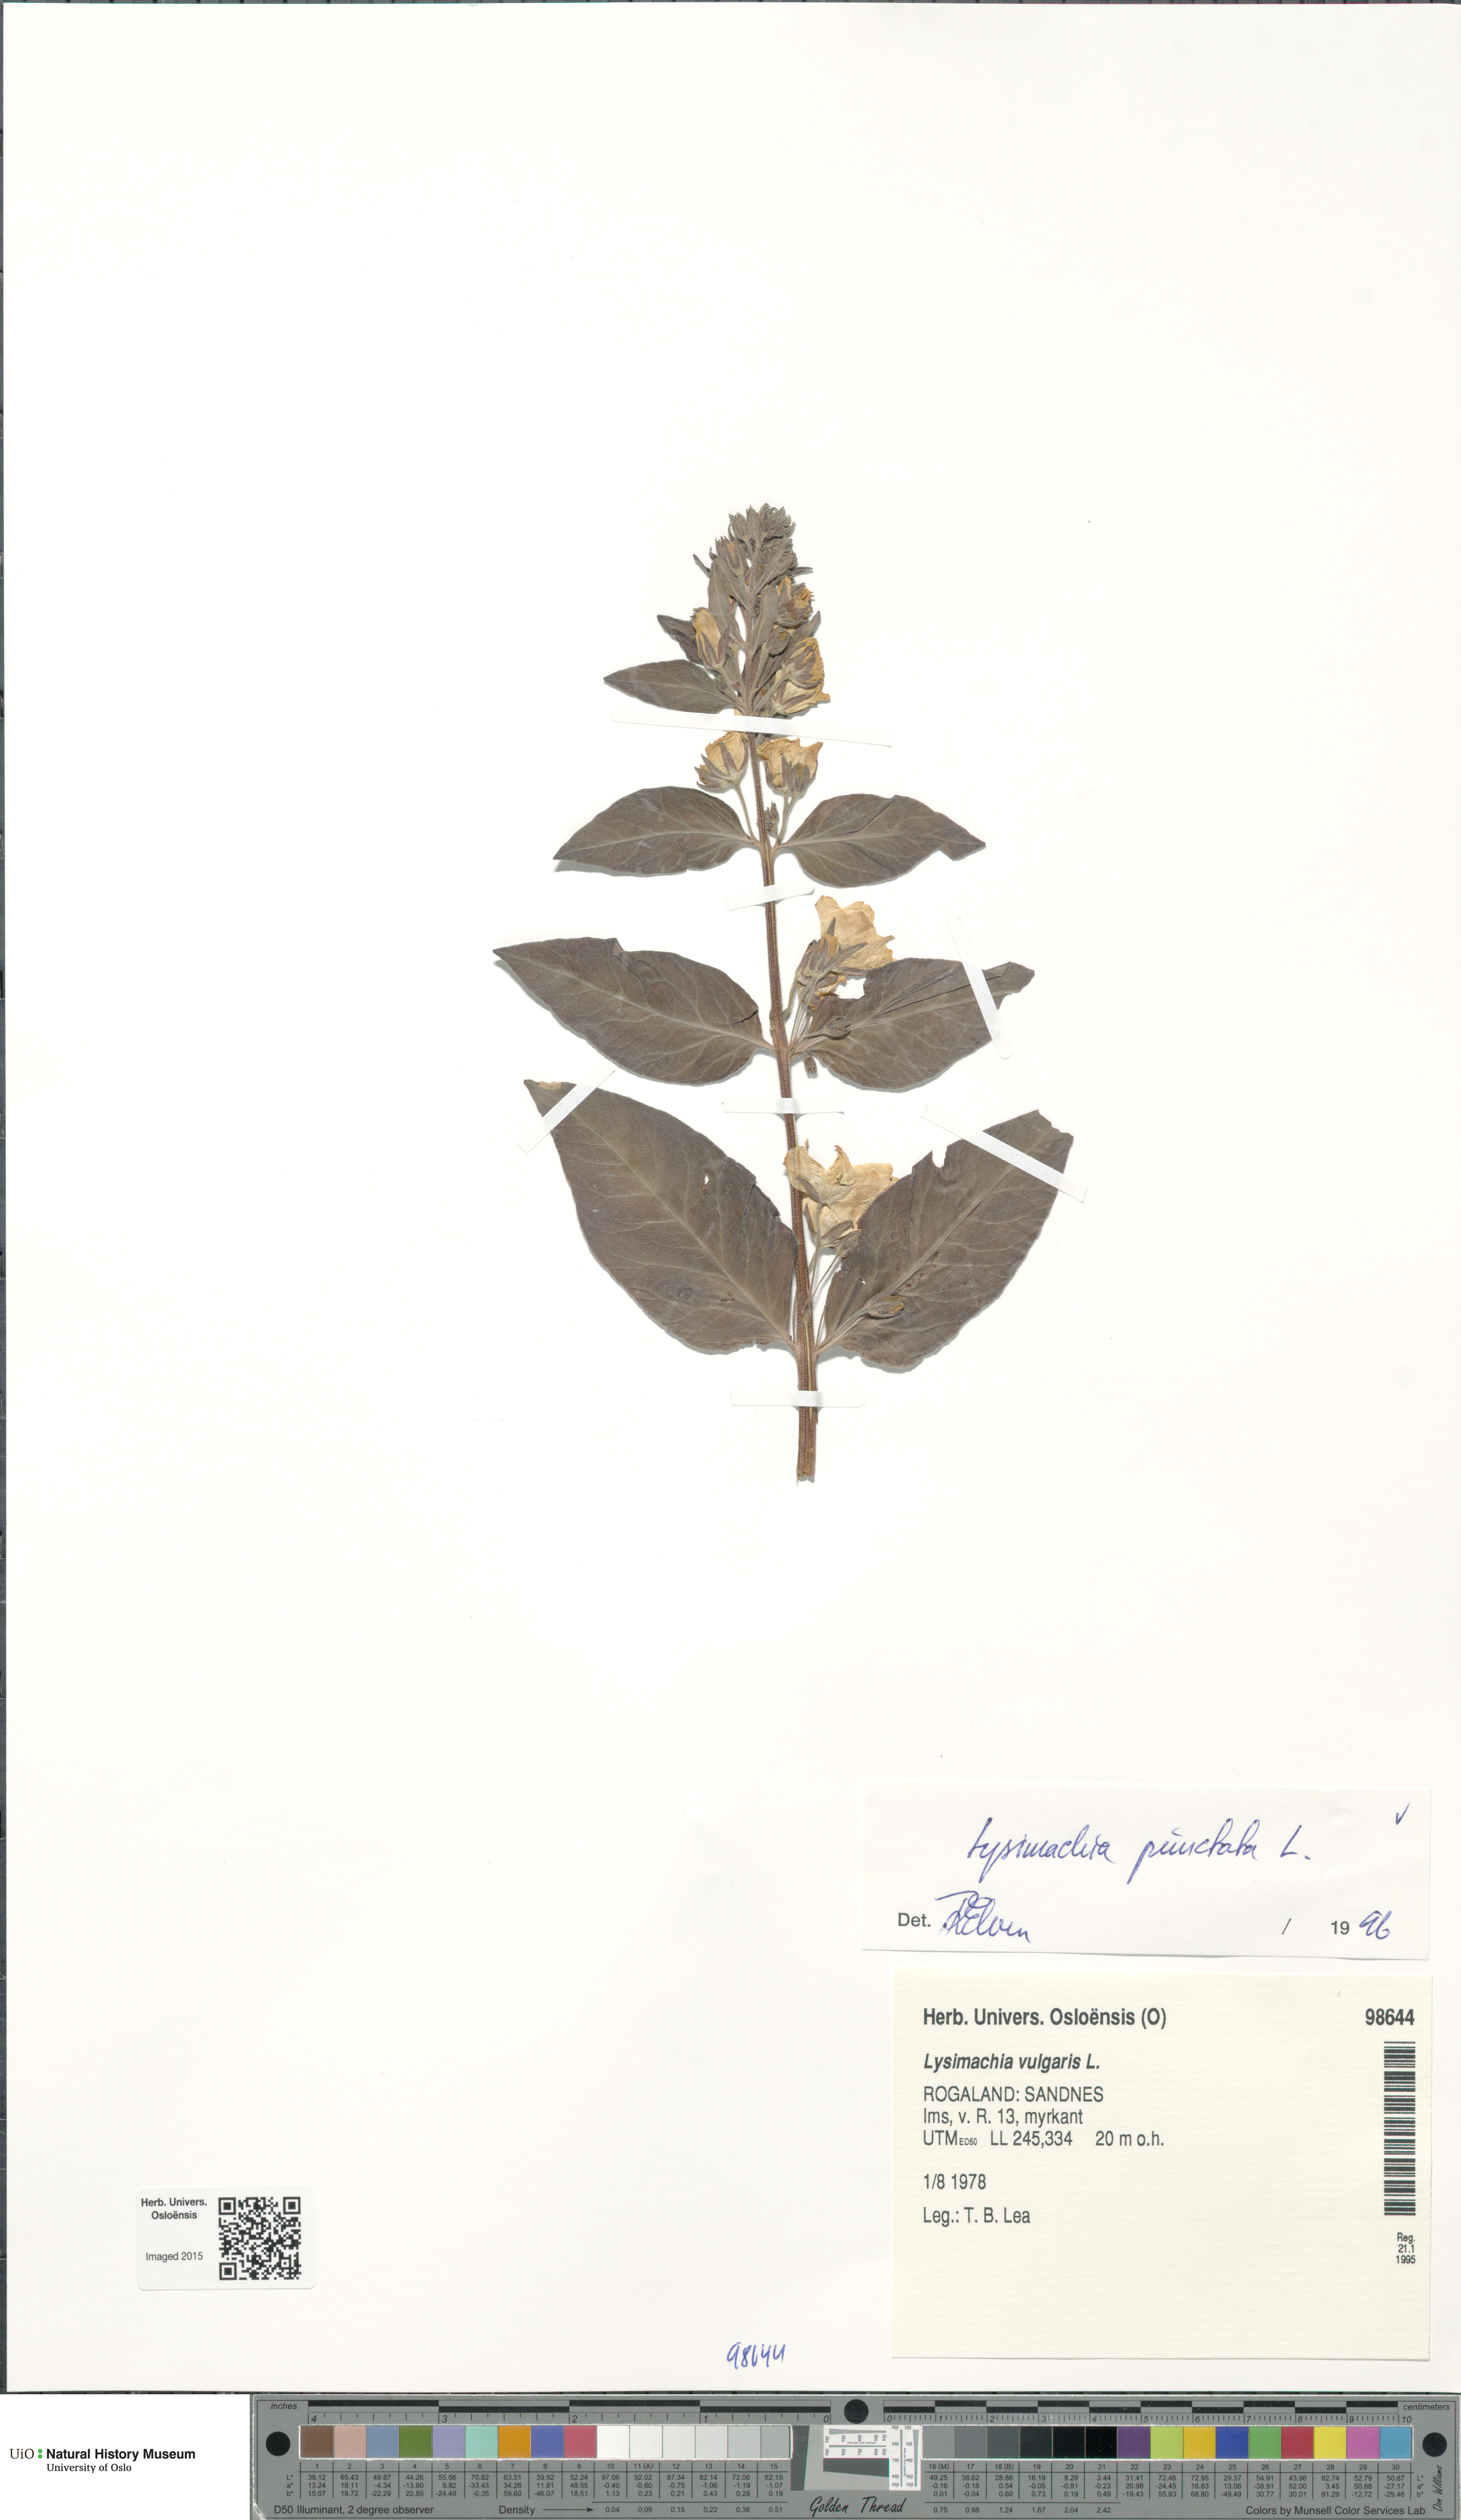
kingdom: Plantae
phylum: Tracheophyta
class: Magnoliopsida
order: Ericales
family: Primulaceae
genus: Lysimachia
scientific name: Lysimachia punctata
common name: Dotted loosestrife
